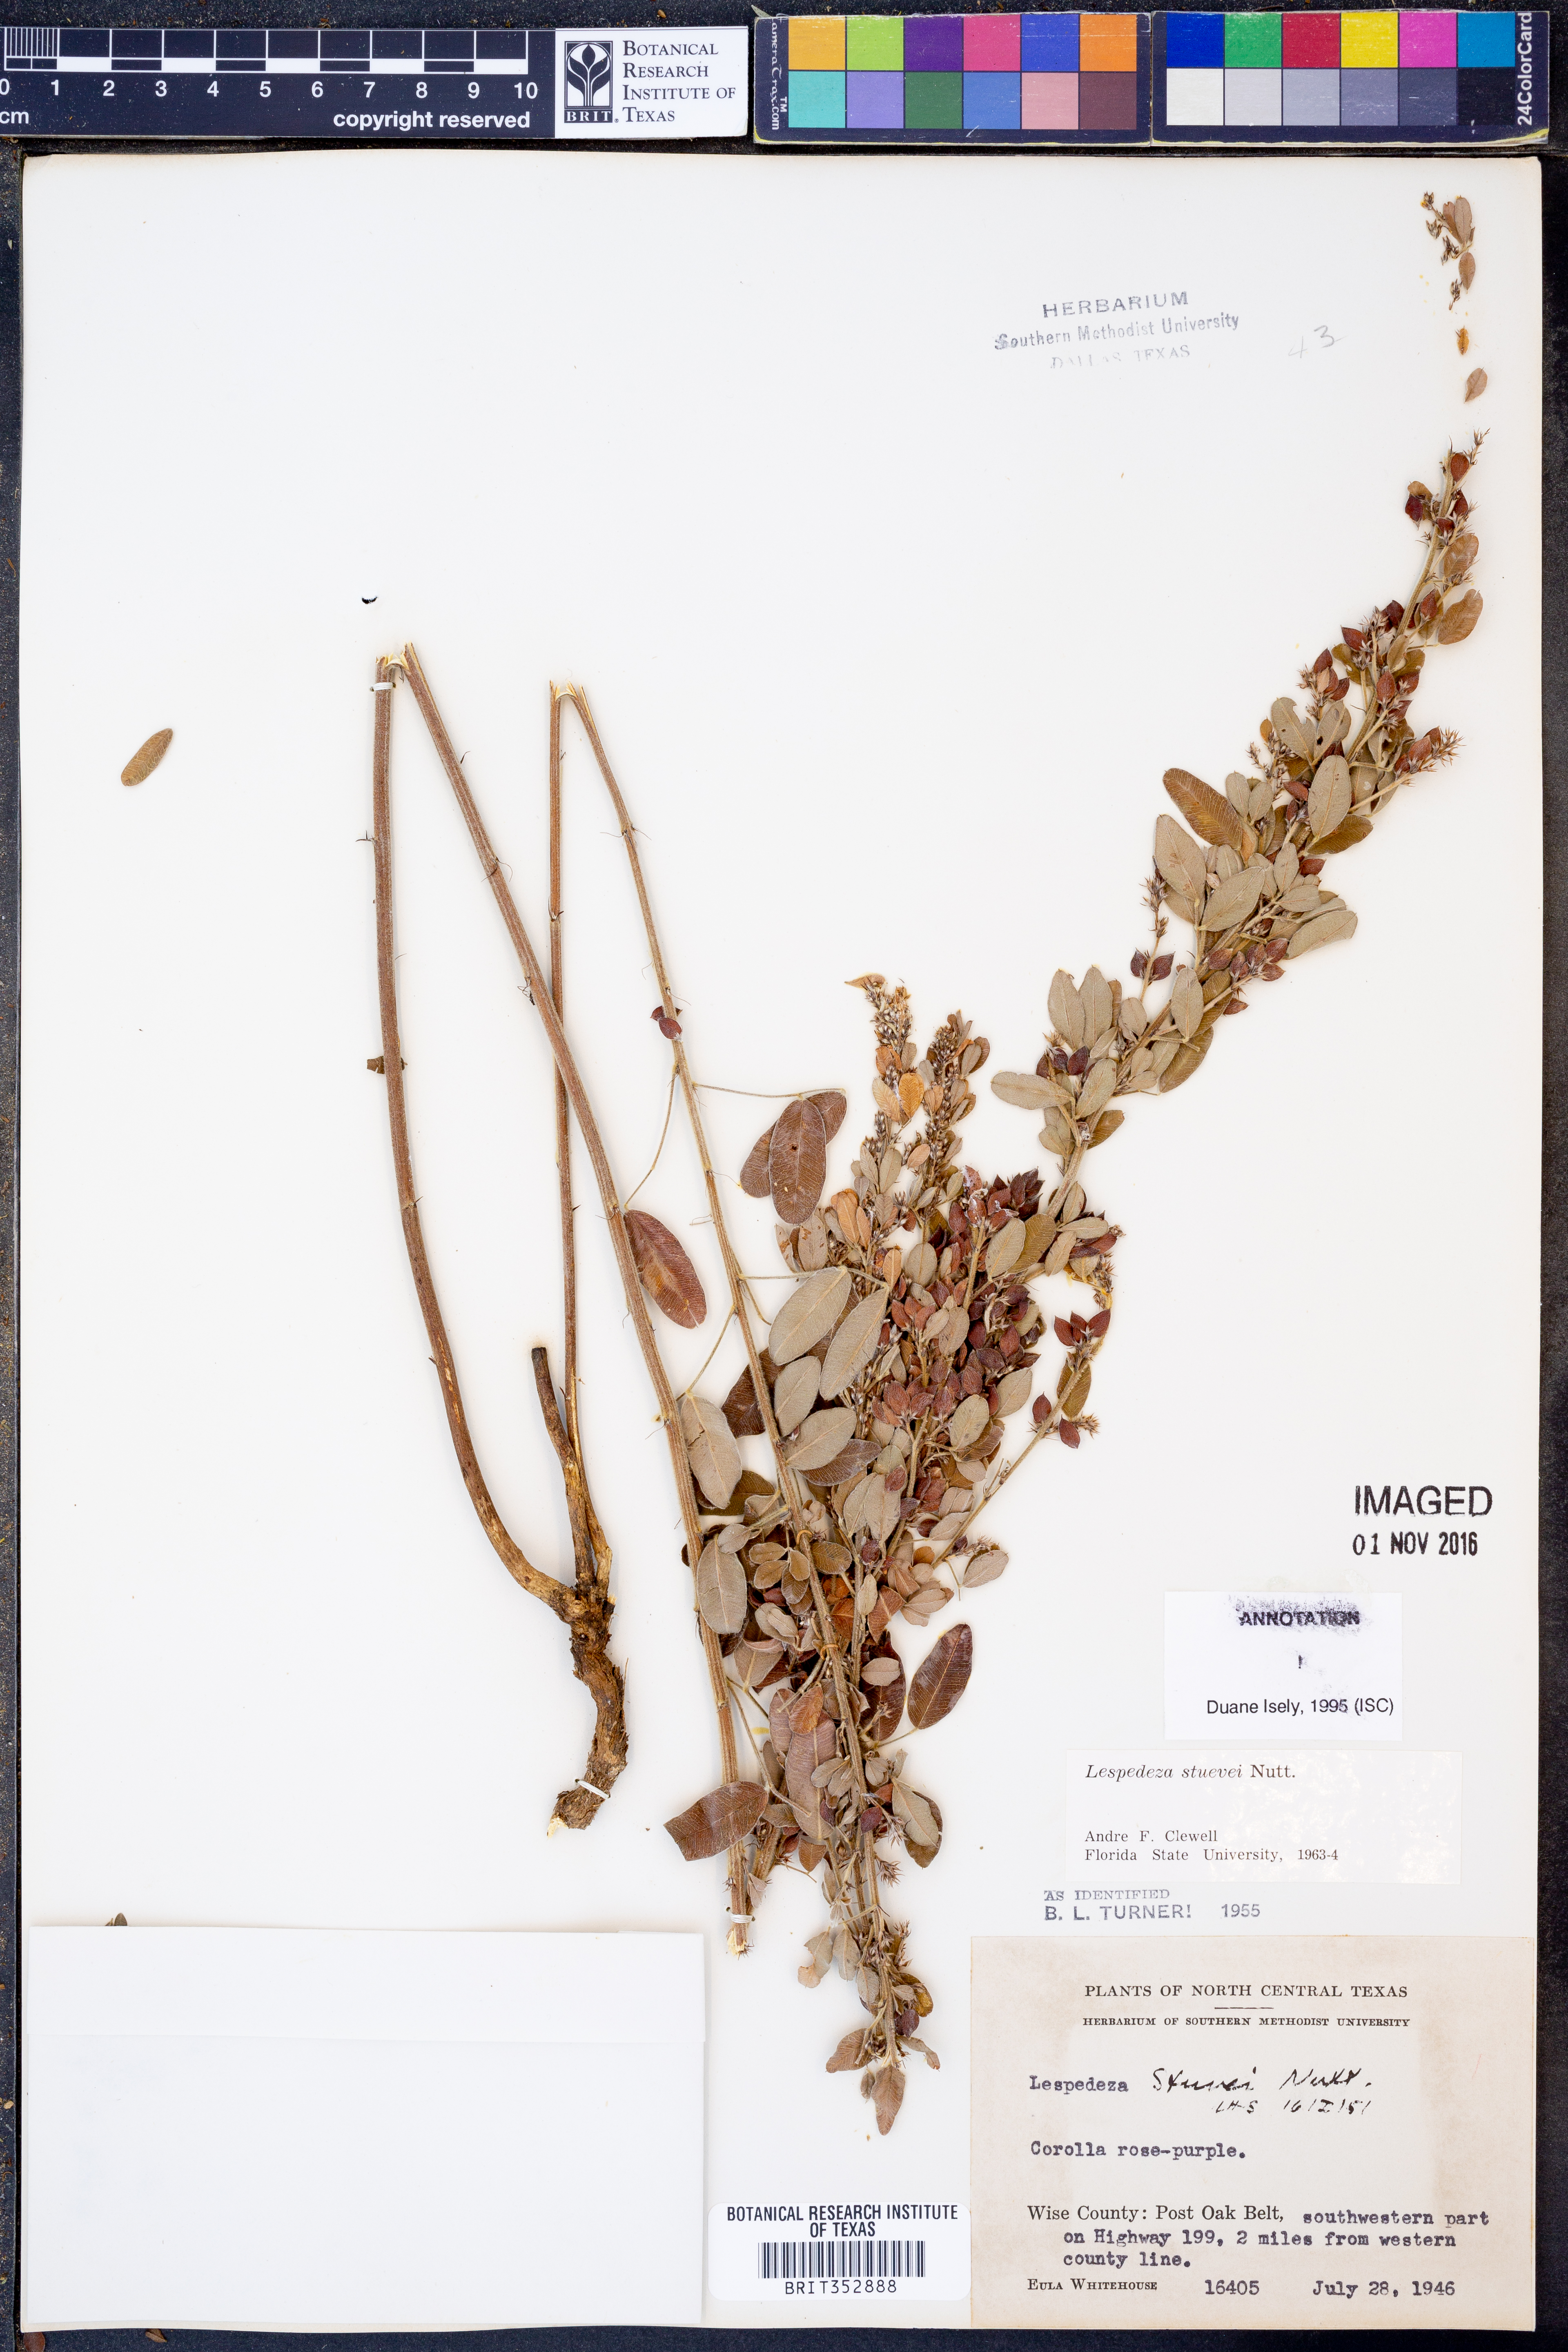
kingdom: Plantae
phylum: Tracheophyta
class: Magnoliopsida
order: Fabales
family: Fabaceae
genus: Lespedeza
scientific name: Lespedeza stuevei
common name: Tall bush-clover
